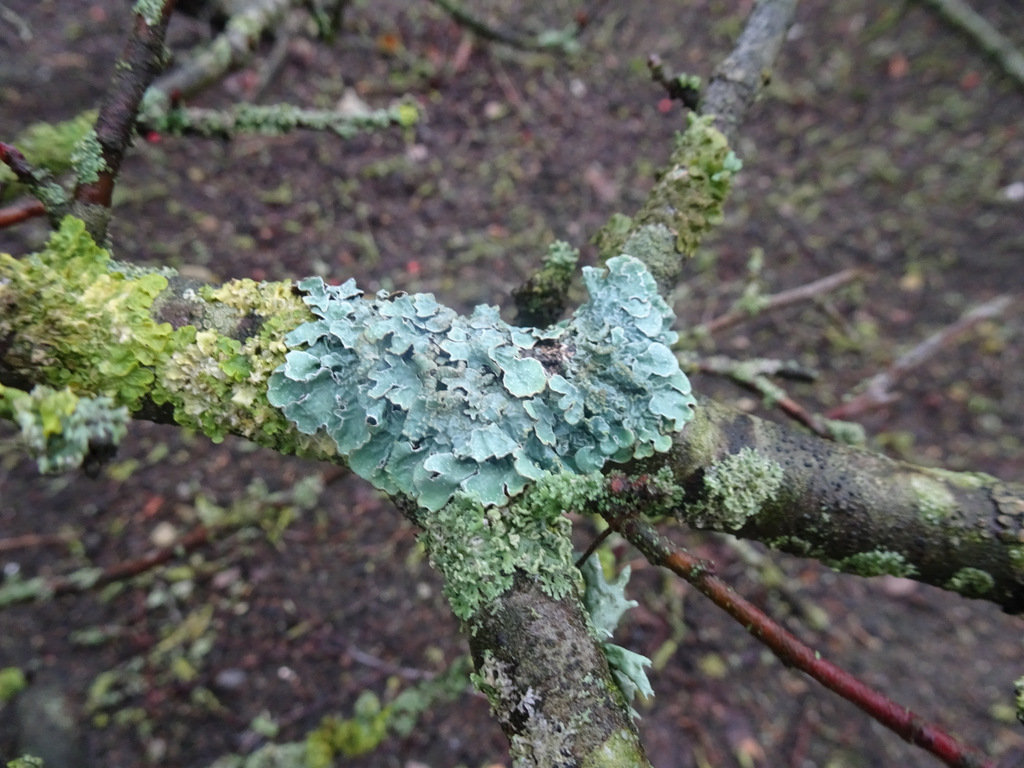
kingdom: Fungi
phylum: Ascomycota
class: Lecanoromycetes
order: Lecanorales
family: Parmeliaceae
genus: Parmelia
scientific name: Parmelia sulcata
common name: rynket skållav
